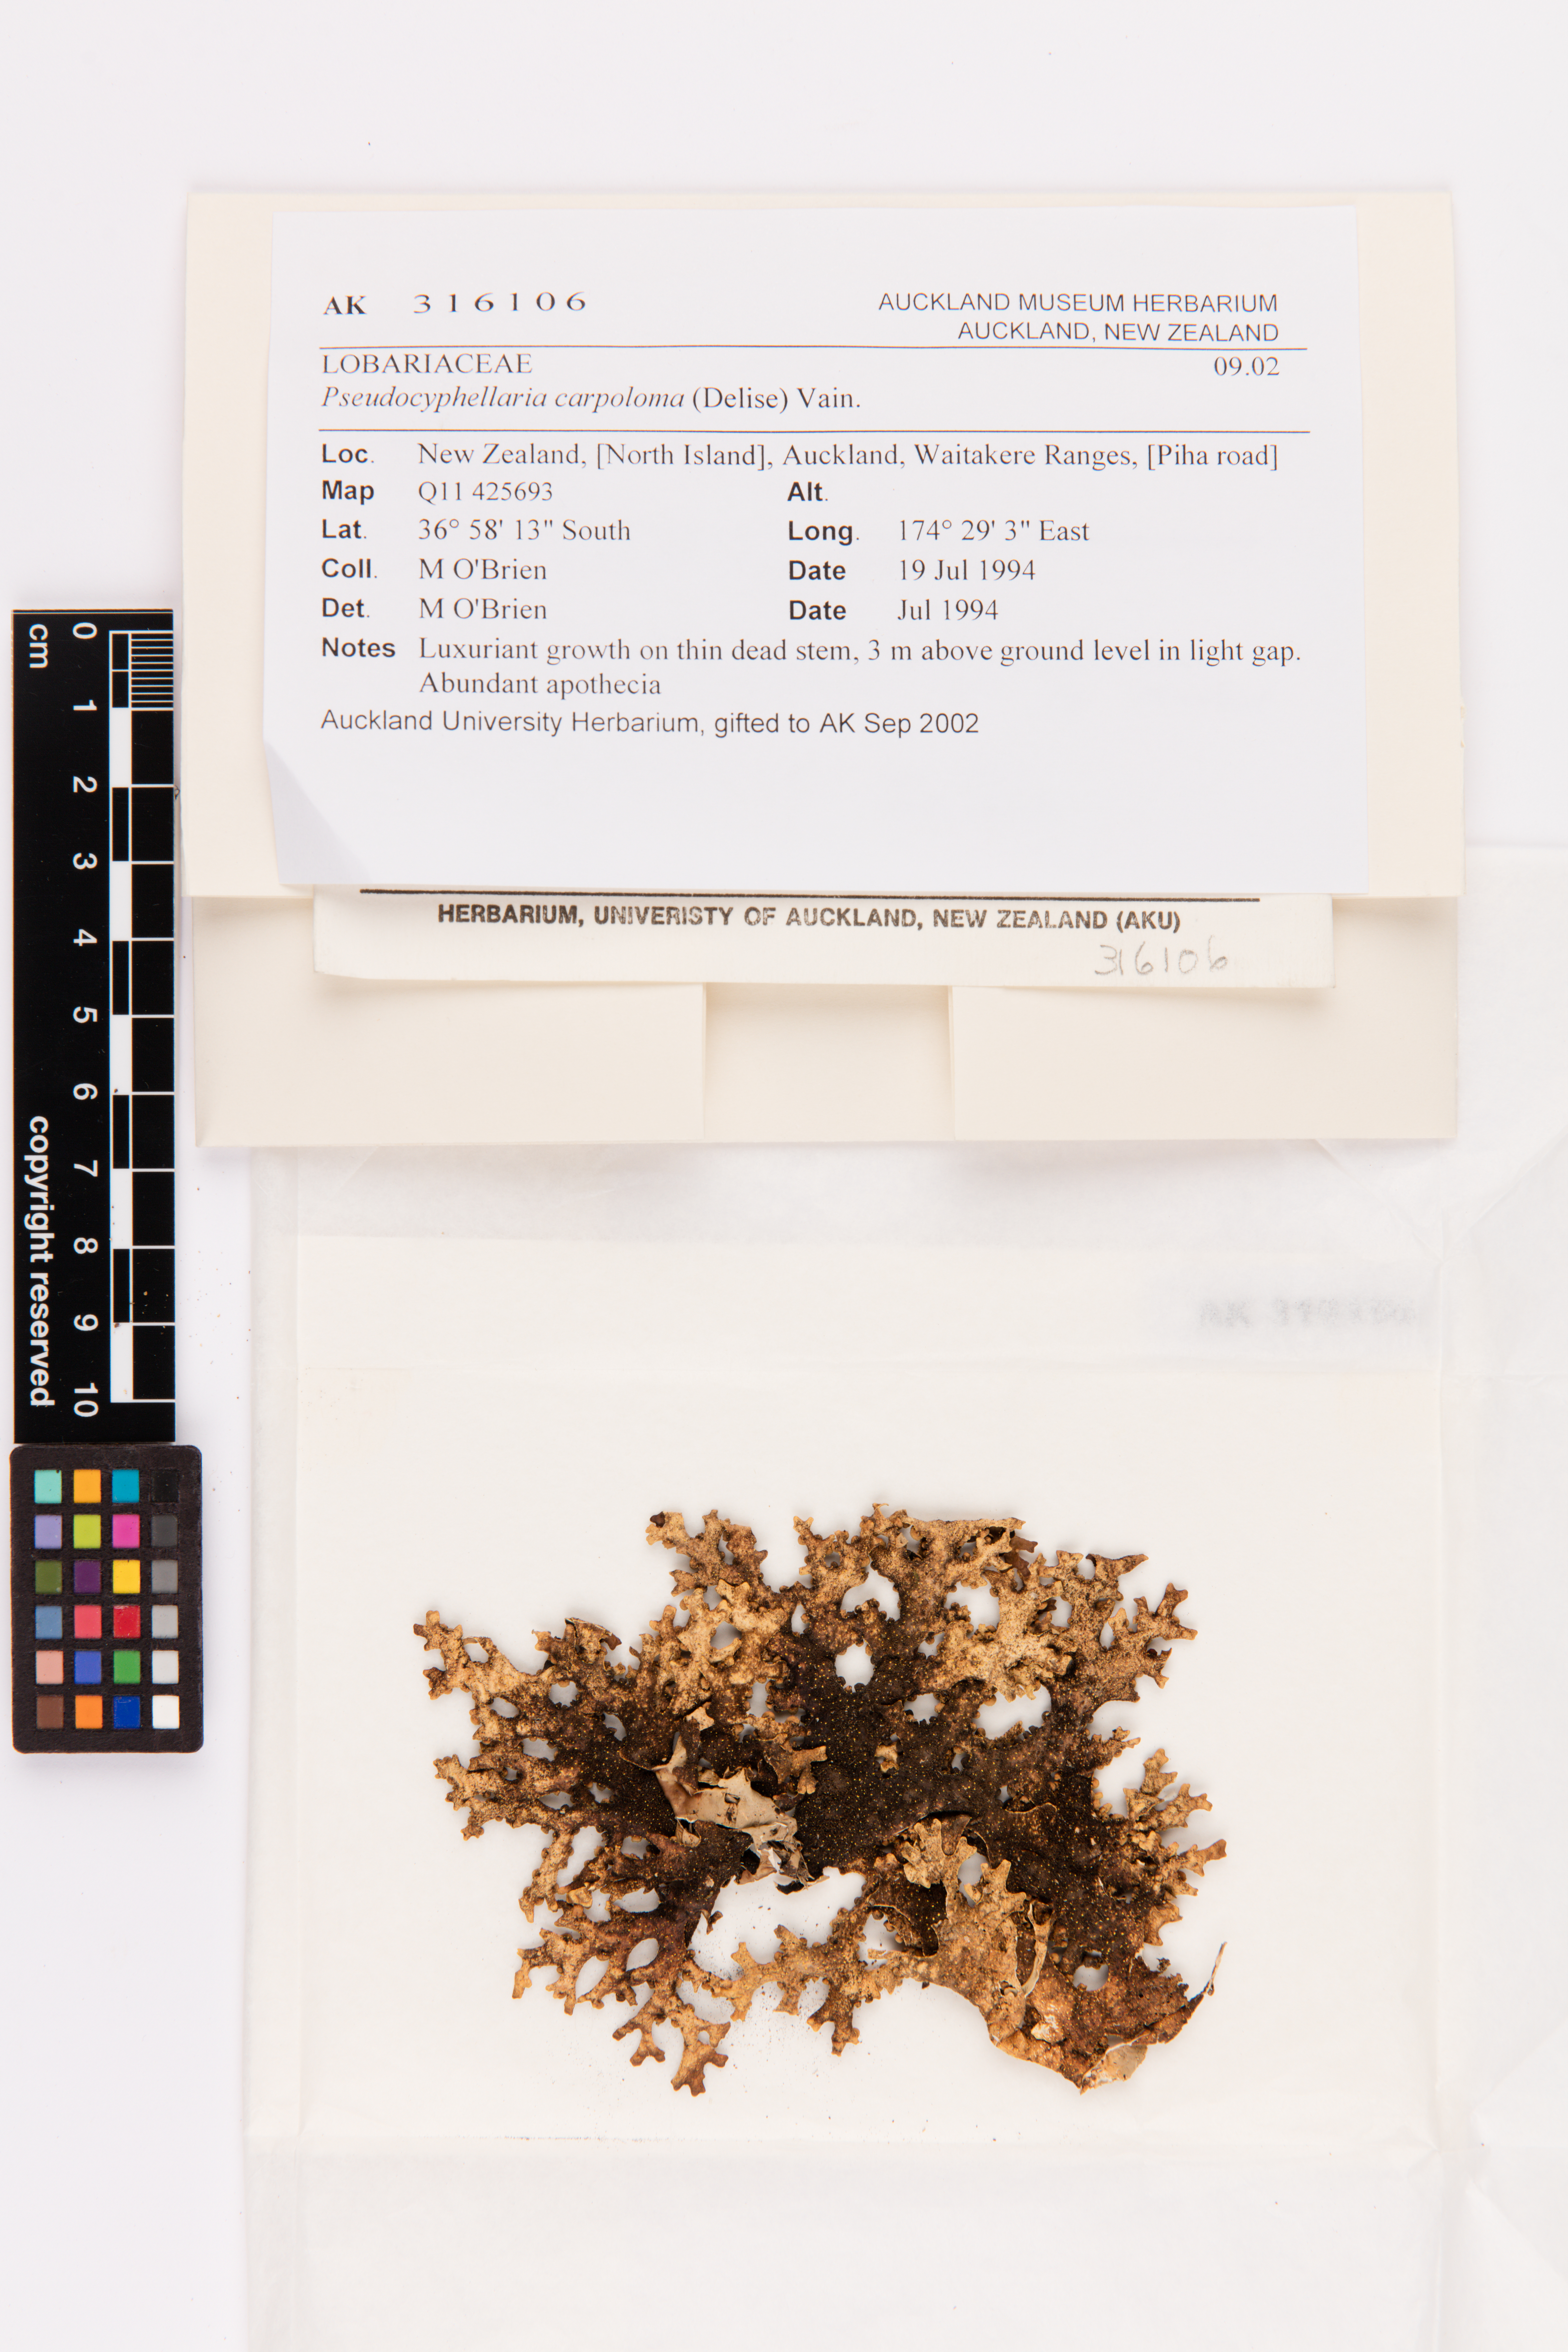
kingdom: Fungi
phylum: Ascomycota
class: Lecanoromycetes
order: Peltigerales
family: Lobariaceae
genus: Pseudocyphellaria
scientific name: Pseudocyphellaria carpoloma
